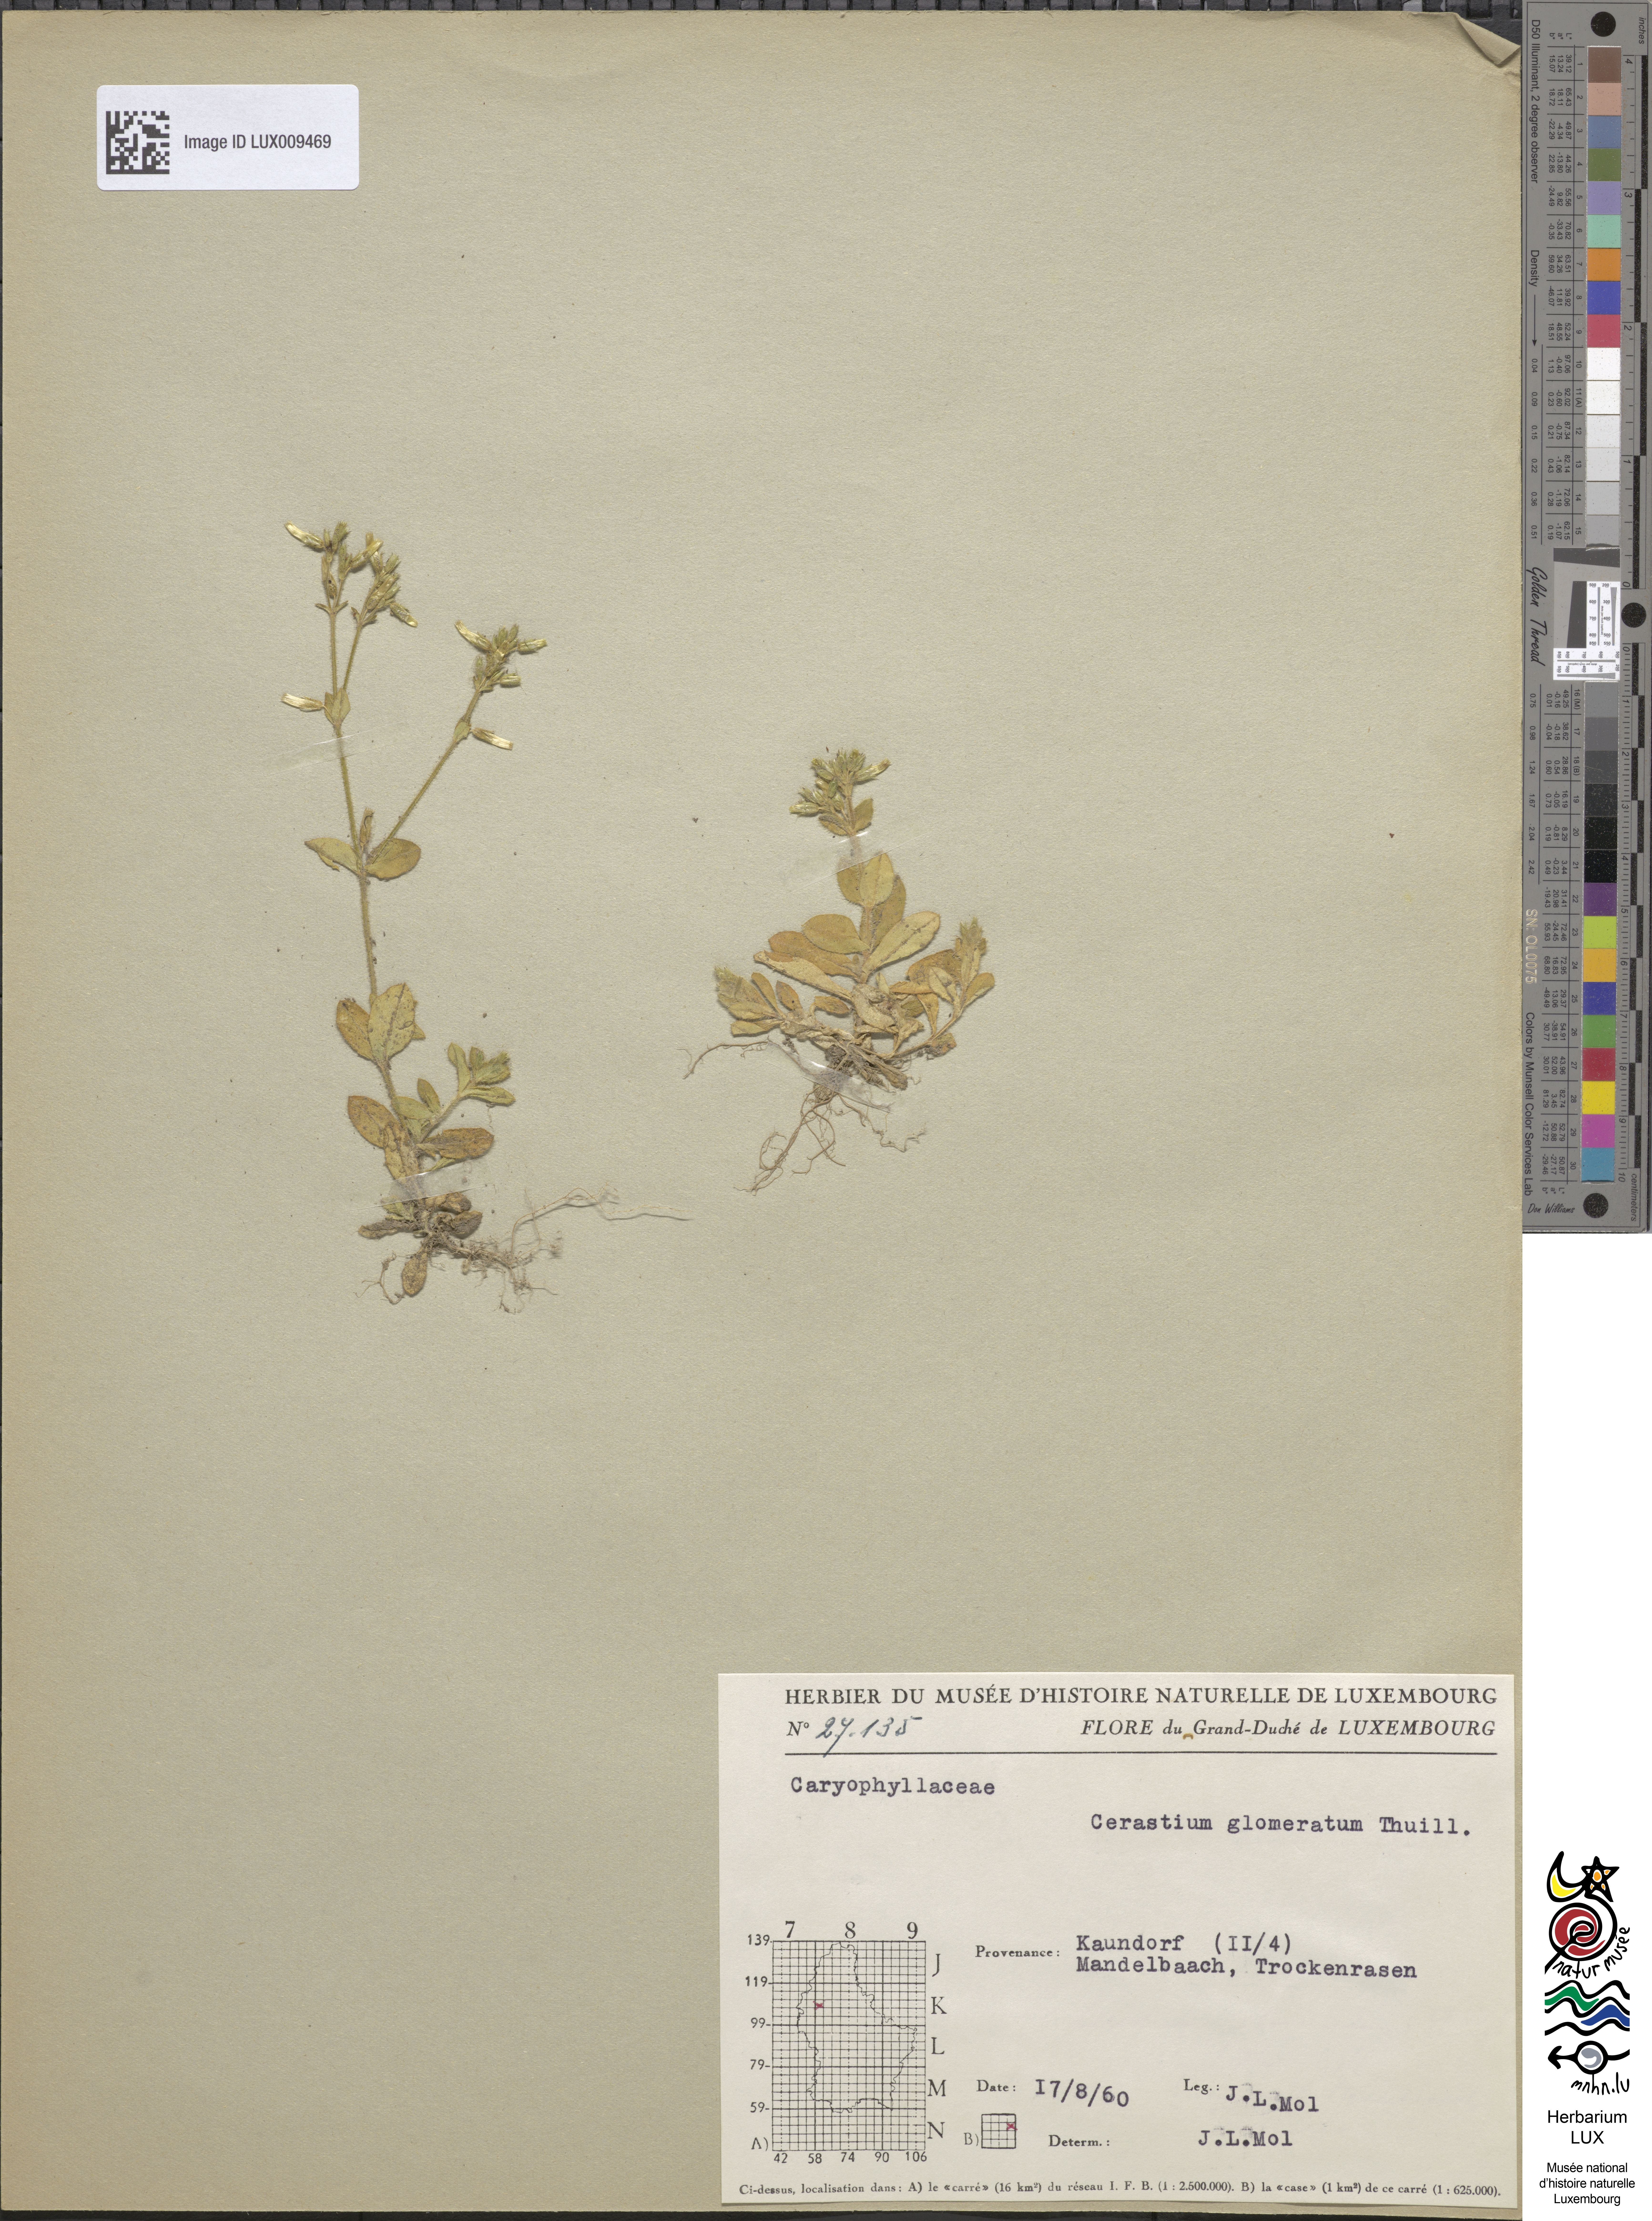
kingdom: Plantae
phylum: Tracheophyta
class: Magnoliopsida
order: Caryophyllales
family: Caryophyllaceae
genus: Cerastium
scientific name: Cerastium glomeratum
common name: Sticky chickweed
